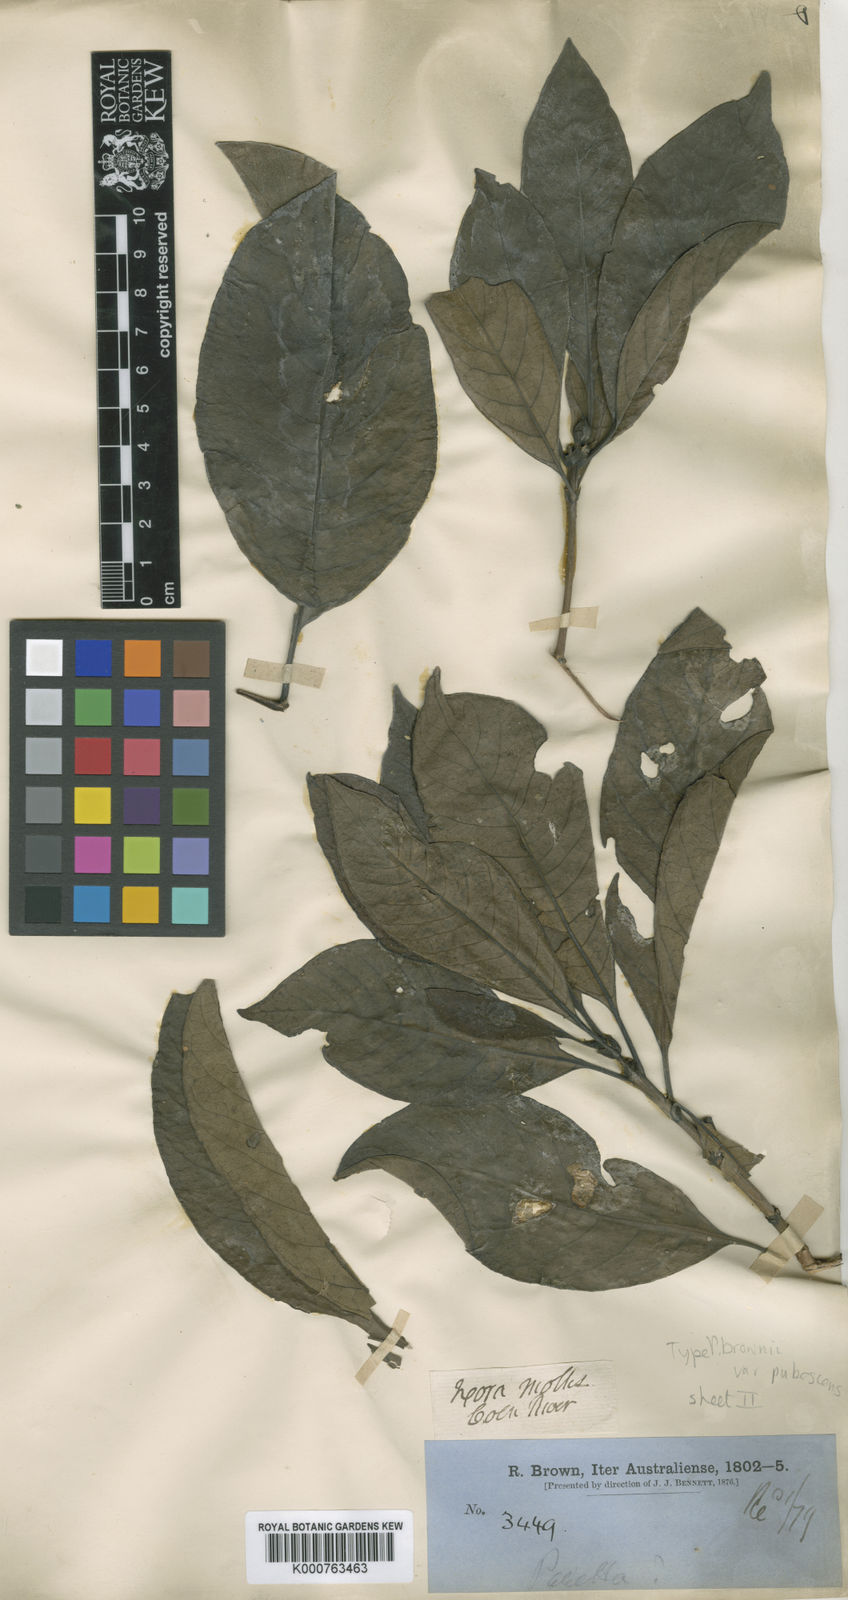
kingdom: Plantae
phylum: Tracheophyta
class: Magnoliopsida
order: Gentianales
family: Rubiaceae
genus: Pavetta
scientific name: Pavetta brownii
